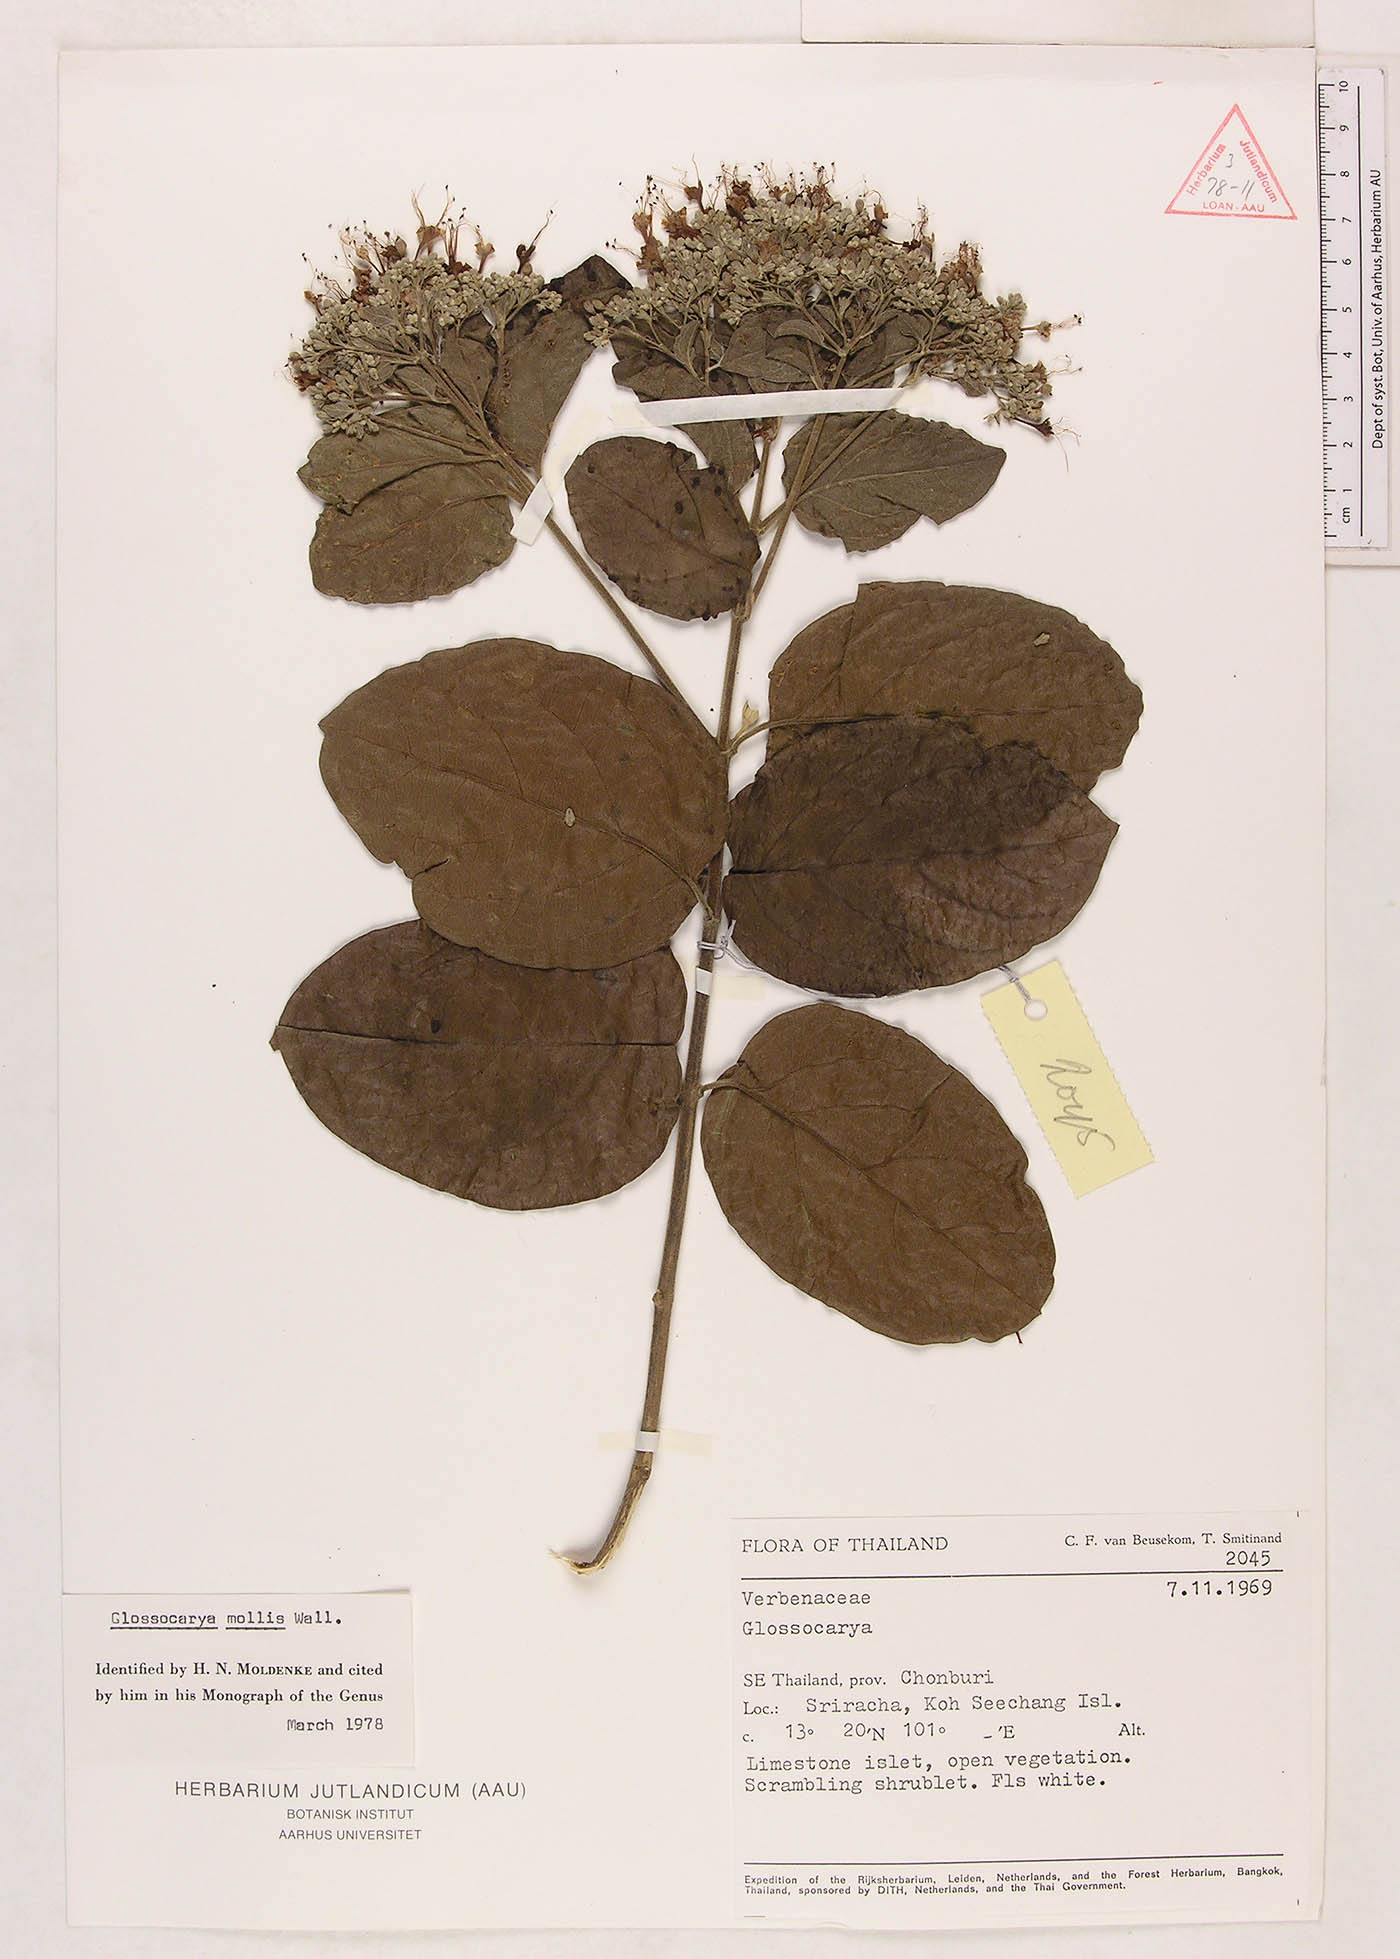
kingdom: Plantae
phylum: Tracheophyta
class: Magnoliopsida
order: Lamiales
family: Lamiaceae
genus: Glossocarya
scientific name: Glossocarya mollis
